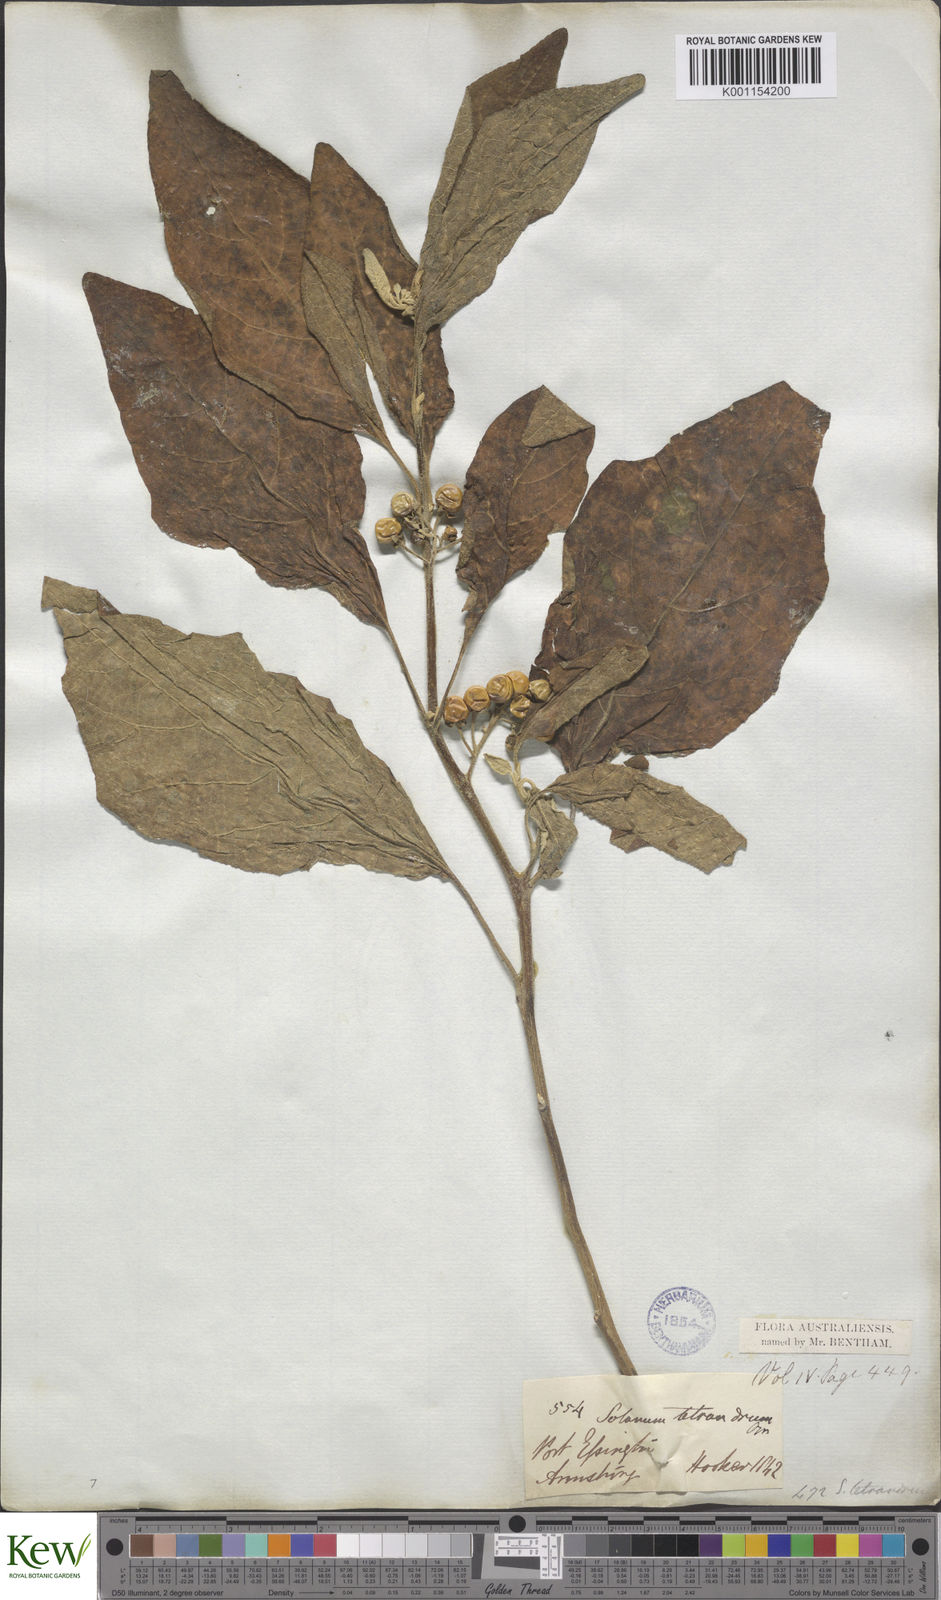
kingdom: Plantae
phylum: Tracheophyta
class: Magnoliopsida
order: Solanales
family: Solanaceae
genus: Solanum
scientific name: Solanum tetrandrum
